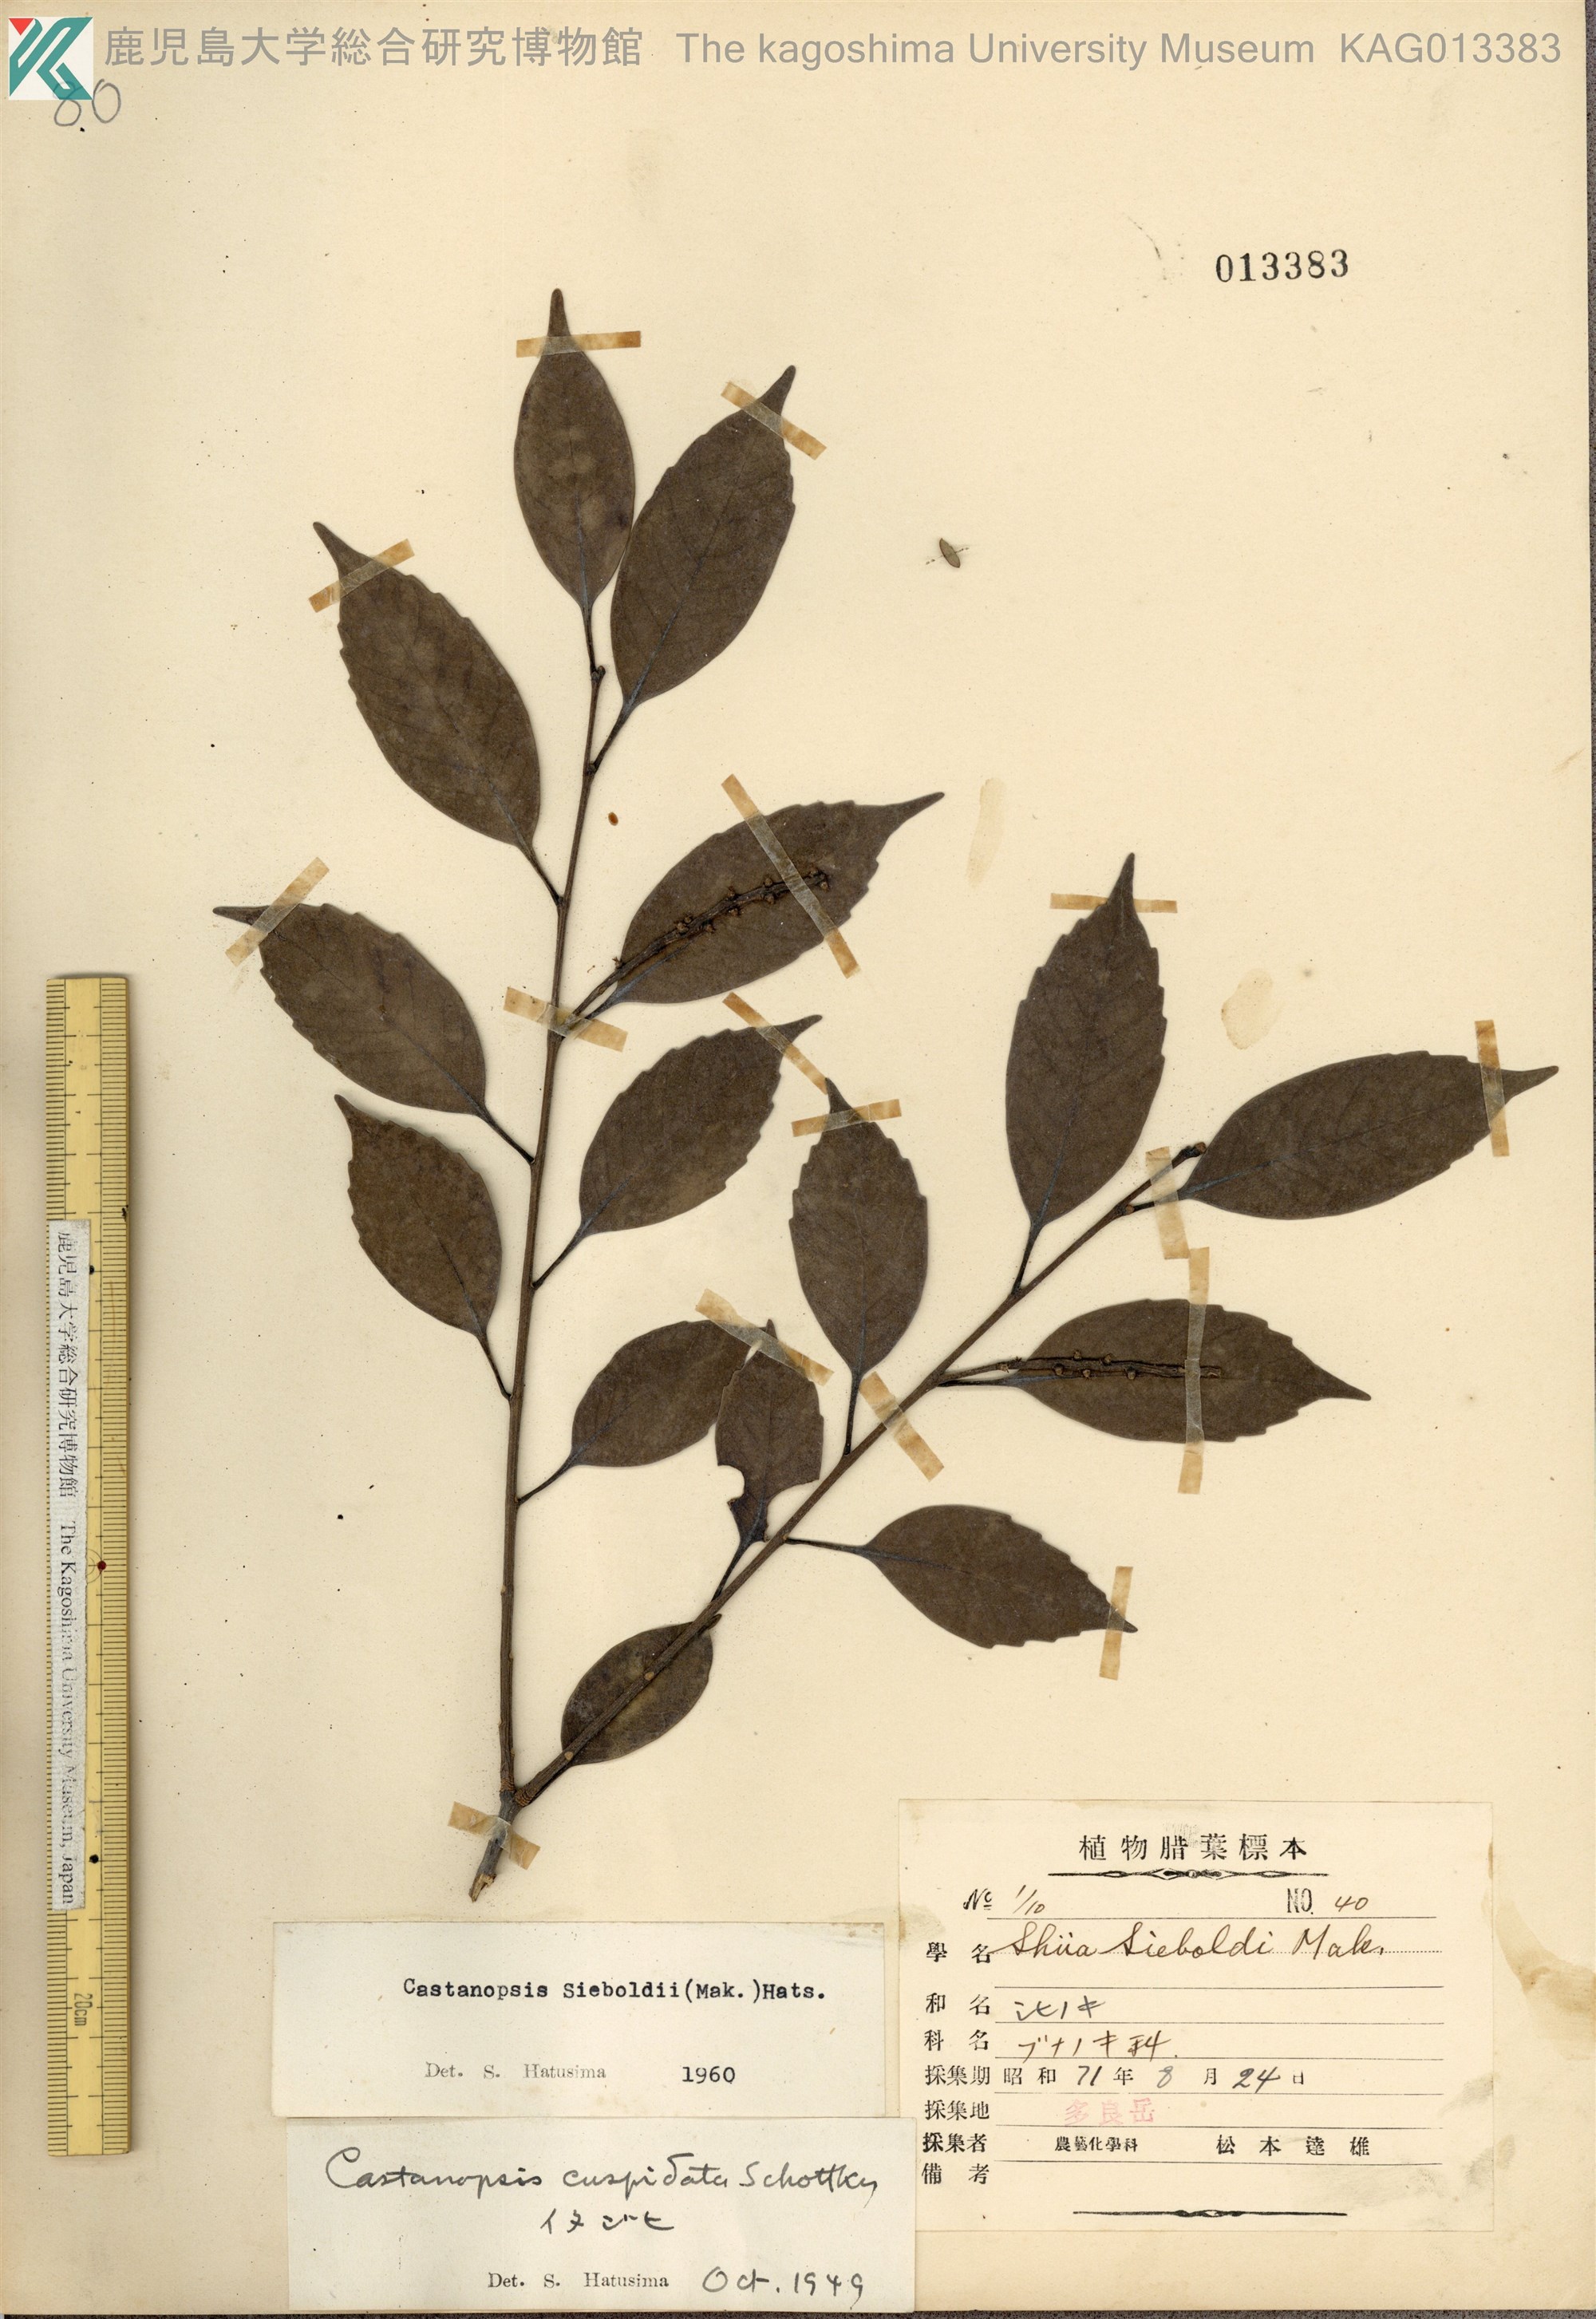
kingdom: Plantae
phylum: Tracheophyta
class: Magnoliopsida
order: Fagales
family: Fagaceae
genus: Castanopsis
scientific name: Castanopsis sieboldii
